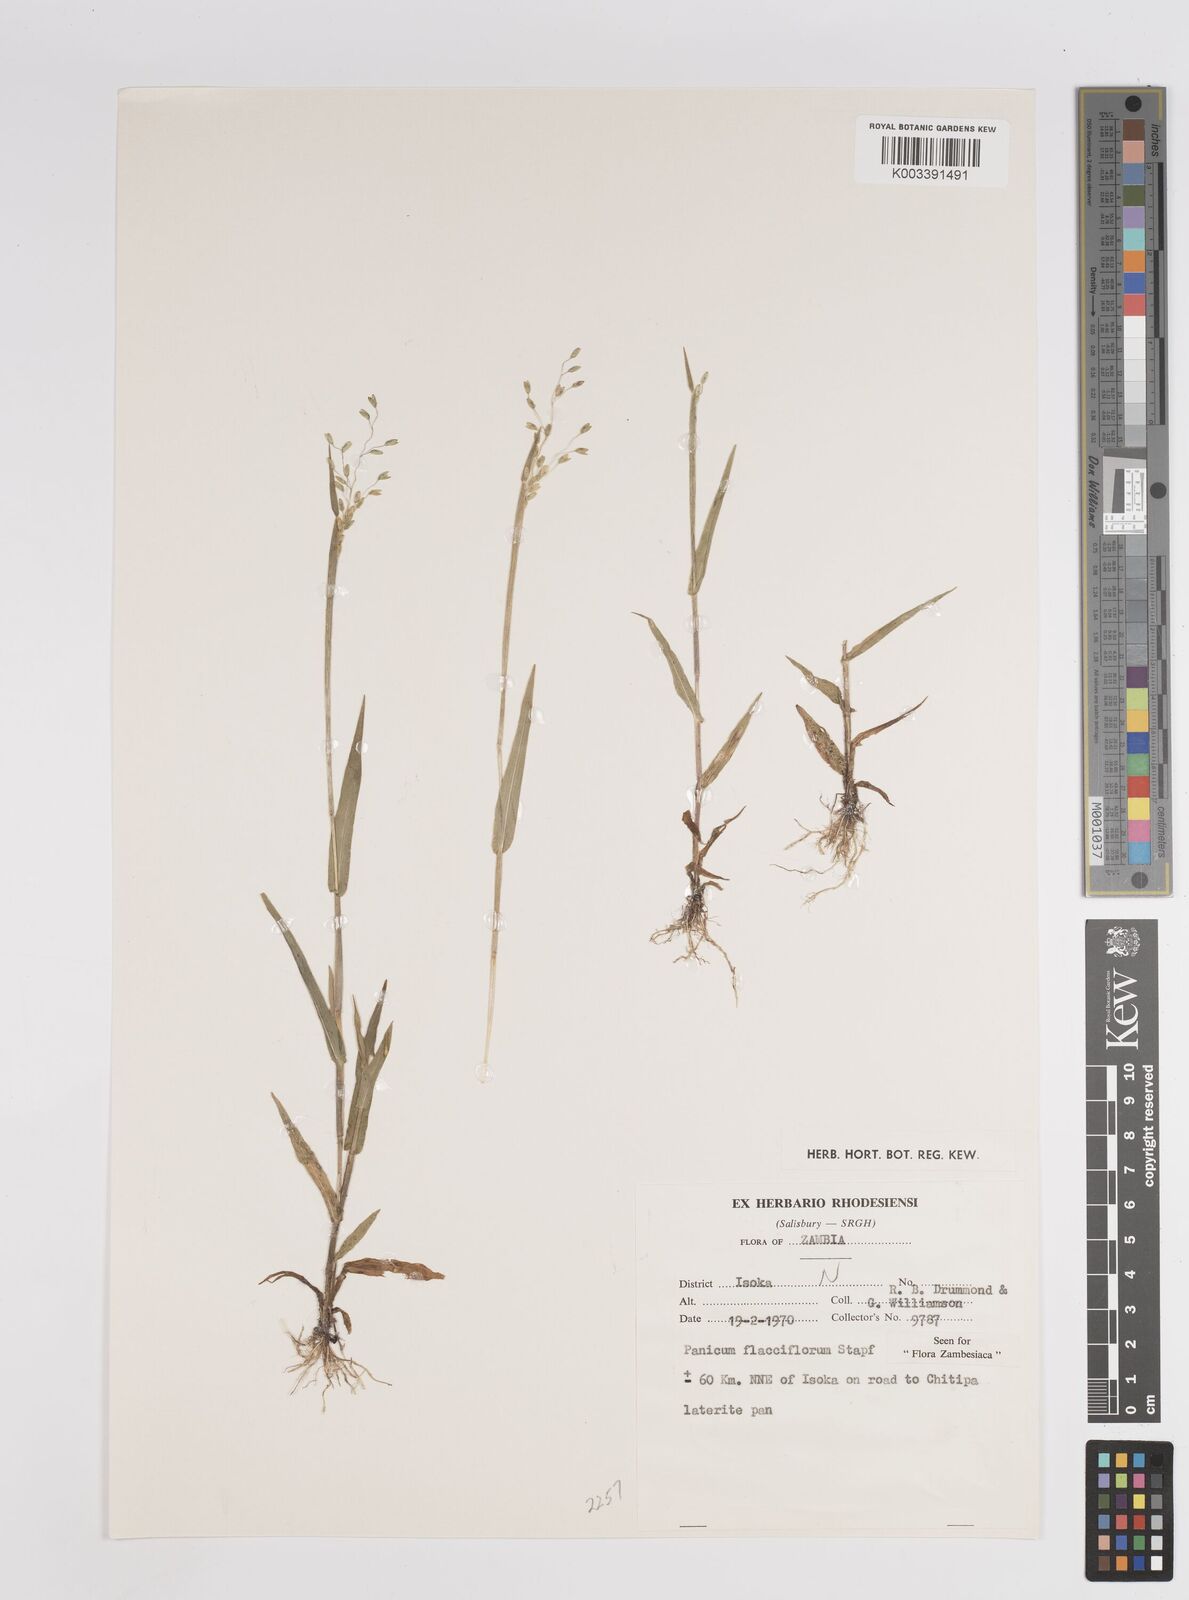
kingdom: Plantae
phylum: Tracheophyta
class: Liliopsida
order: Poales
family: Poaceae
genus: Adenochloa
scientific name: Adenochloa flacciflora
